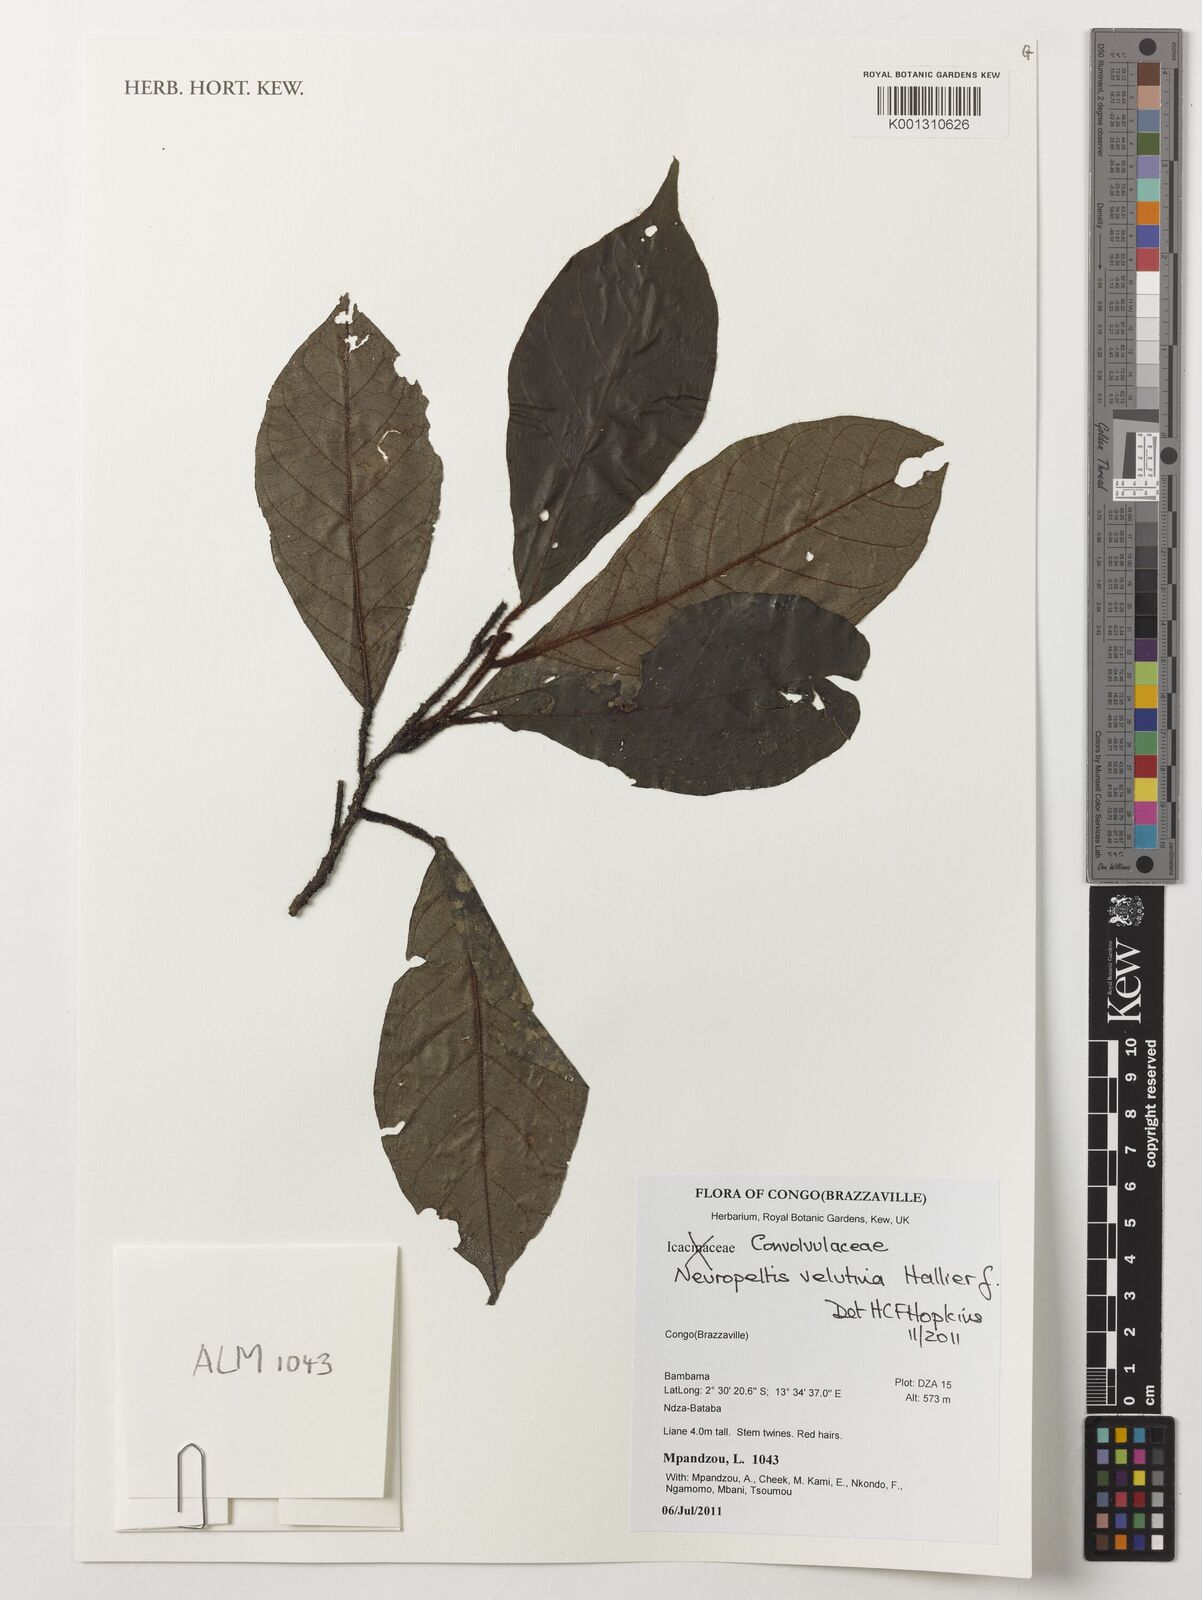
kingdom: Plantae
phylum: Tracheophyta
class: Magnoliopsida
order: Solanales
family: Convolvulaceae
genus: Neuropeltis
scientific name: Neuropeltis velutina
